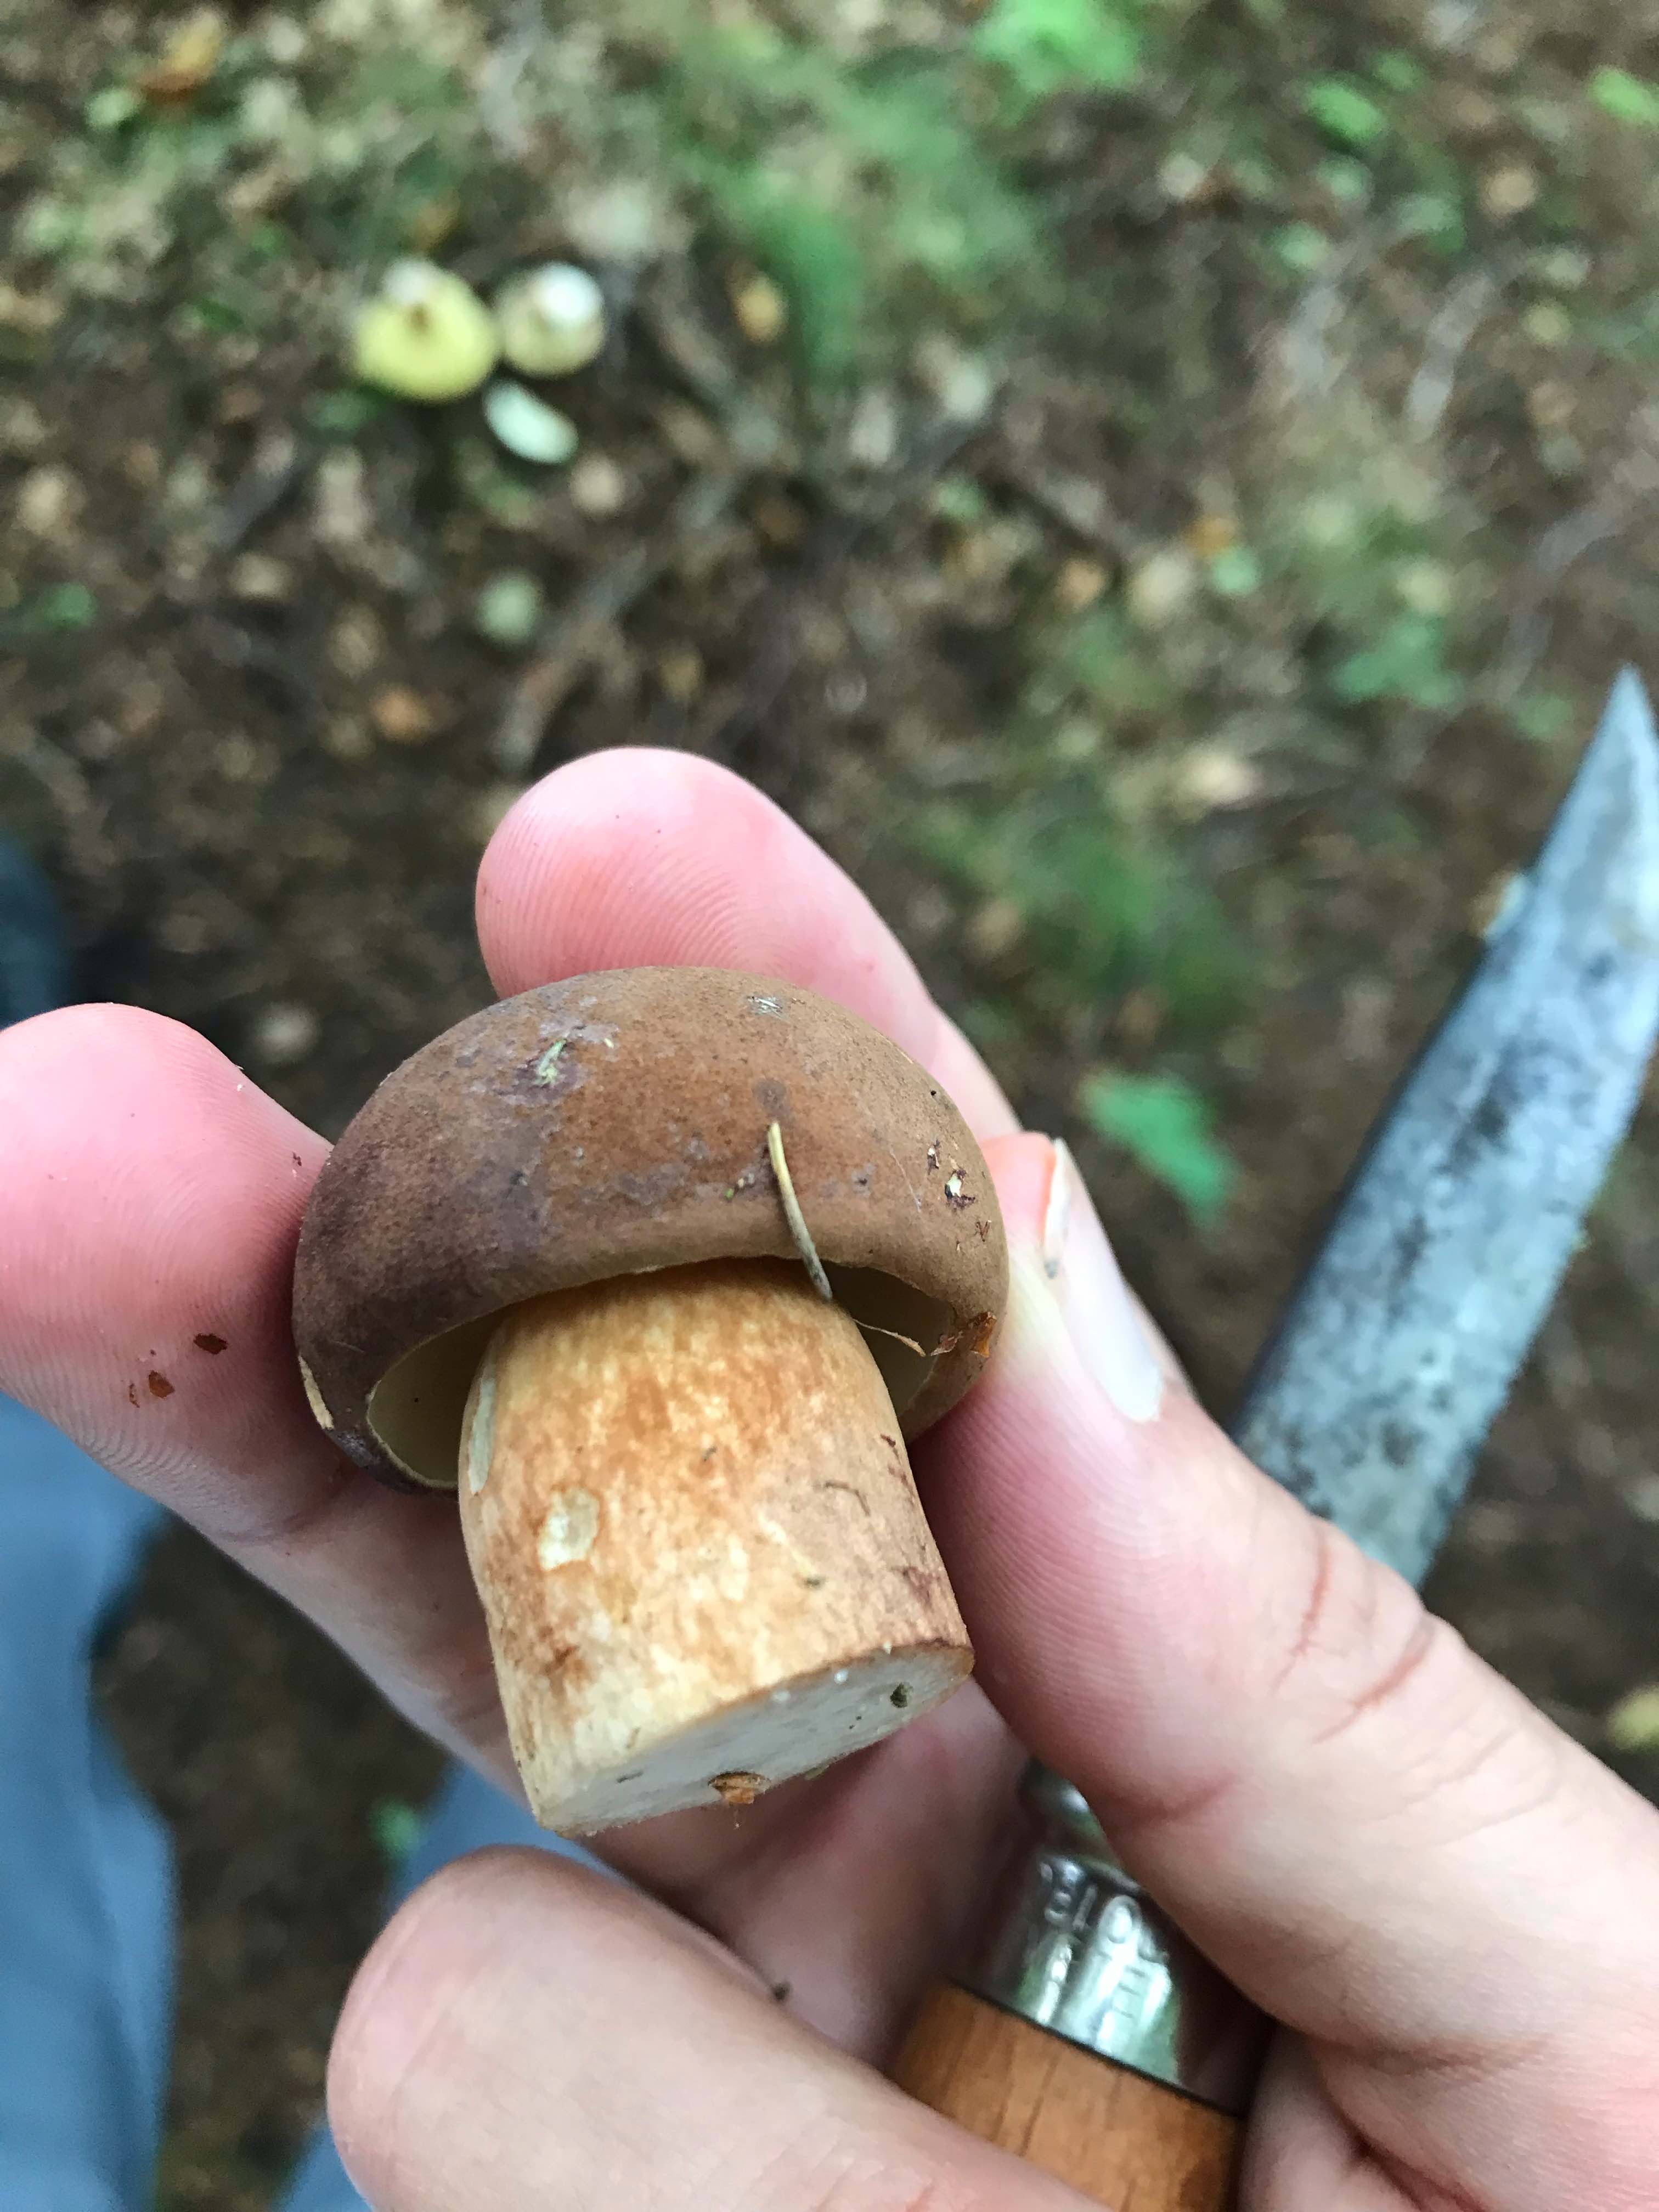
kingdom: Fungi
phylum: Basidiomycota
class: Agaricomycetes
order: Boletales
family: Boletaceae
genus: Imleria
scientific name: Imleria badia
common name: brunstokket rørhat
